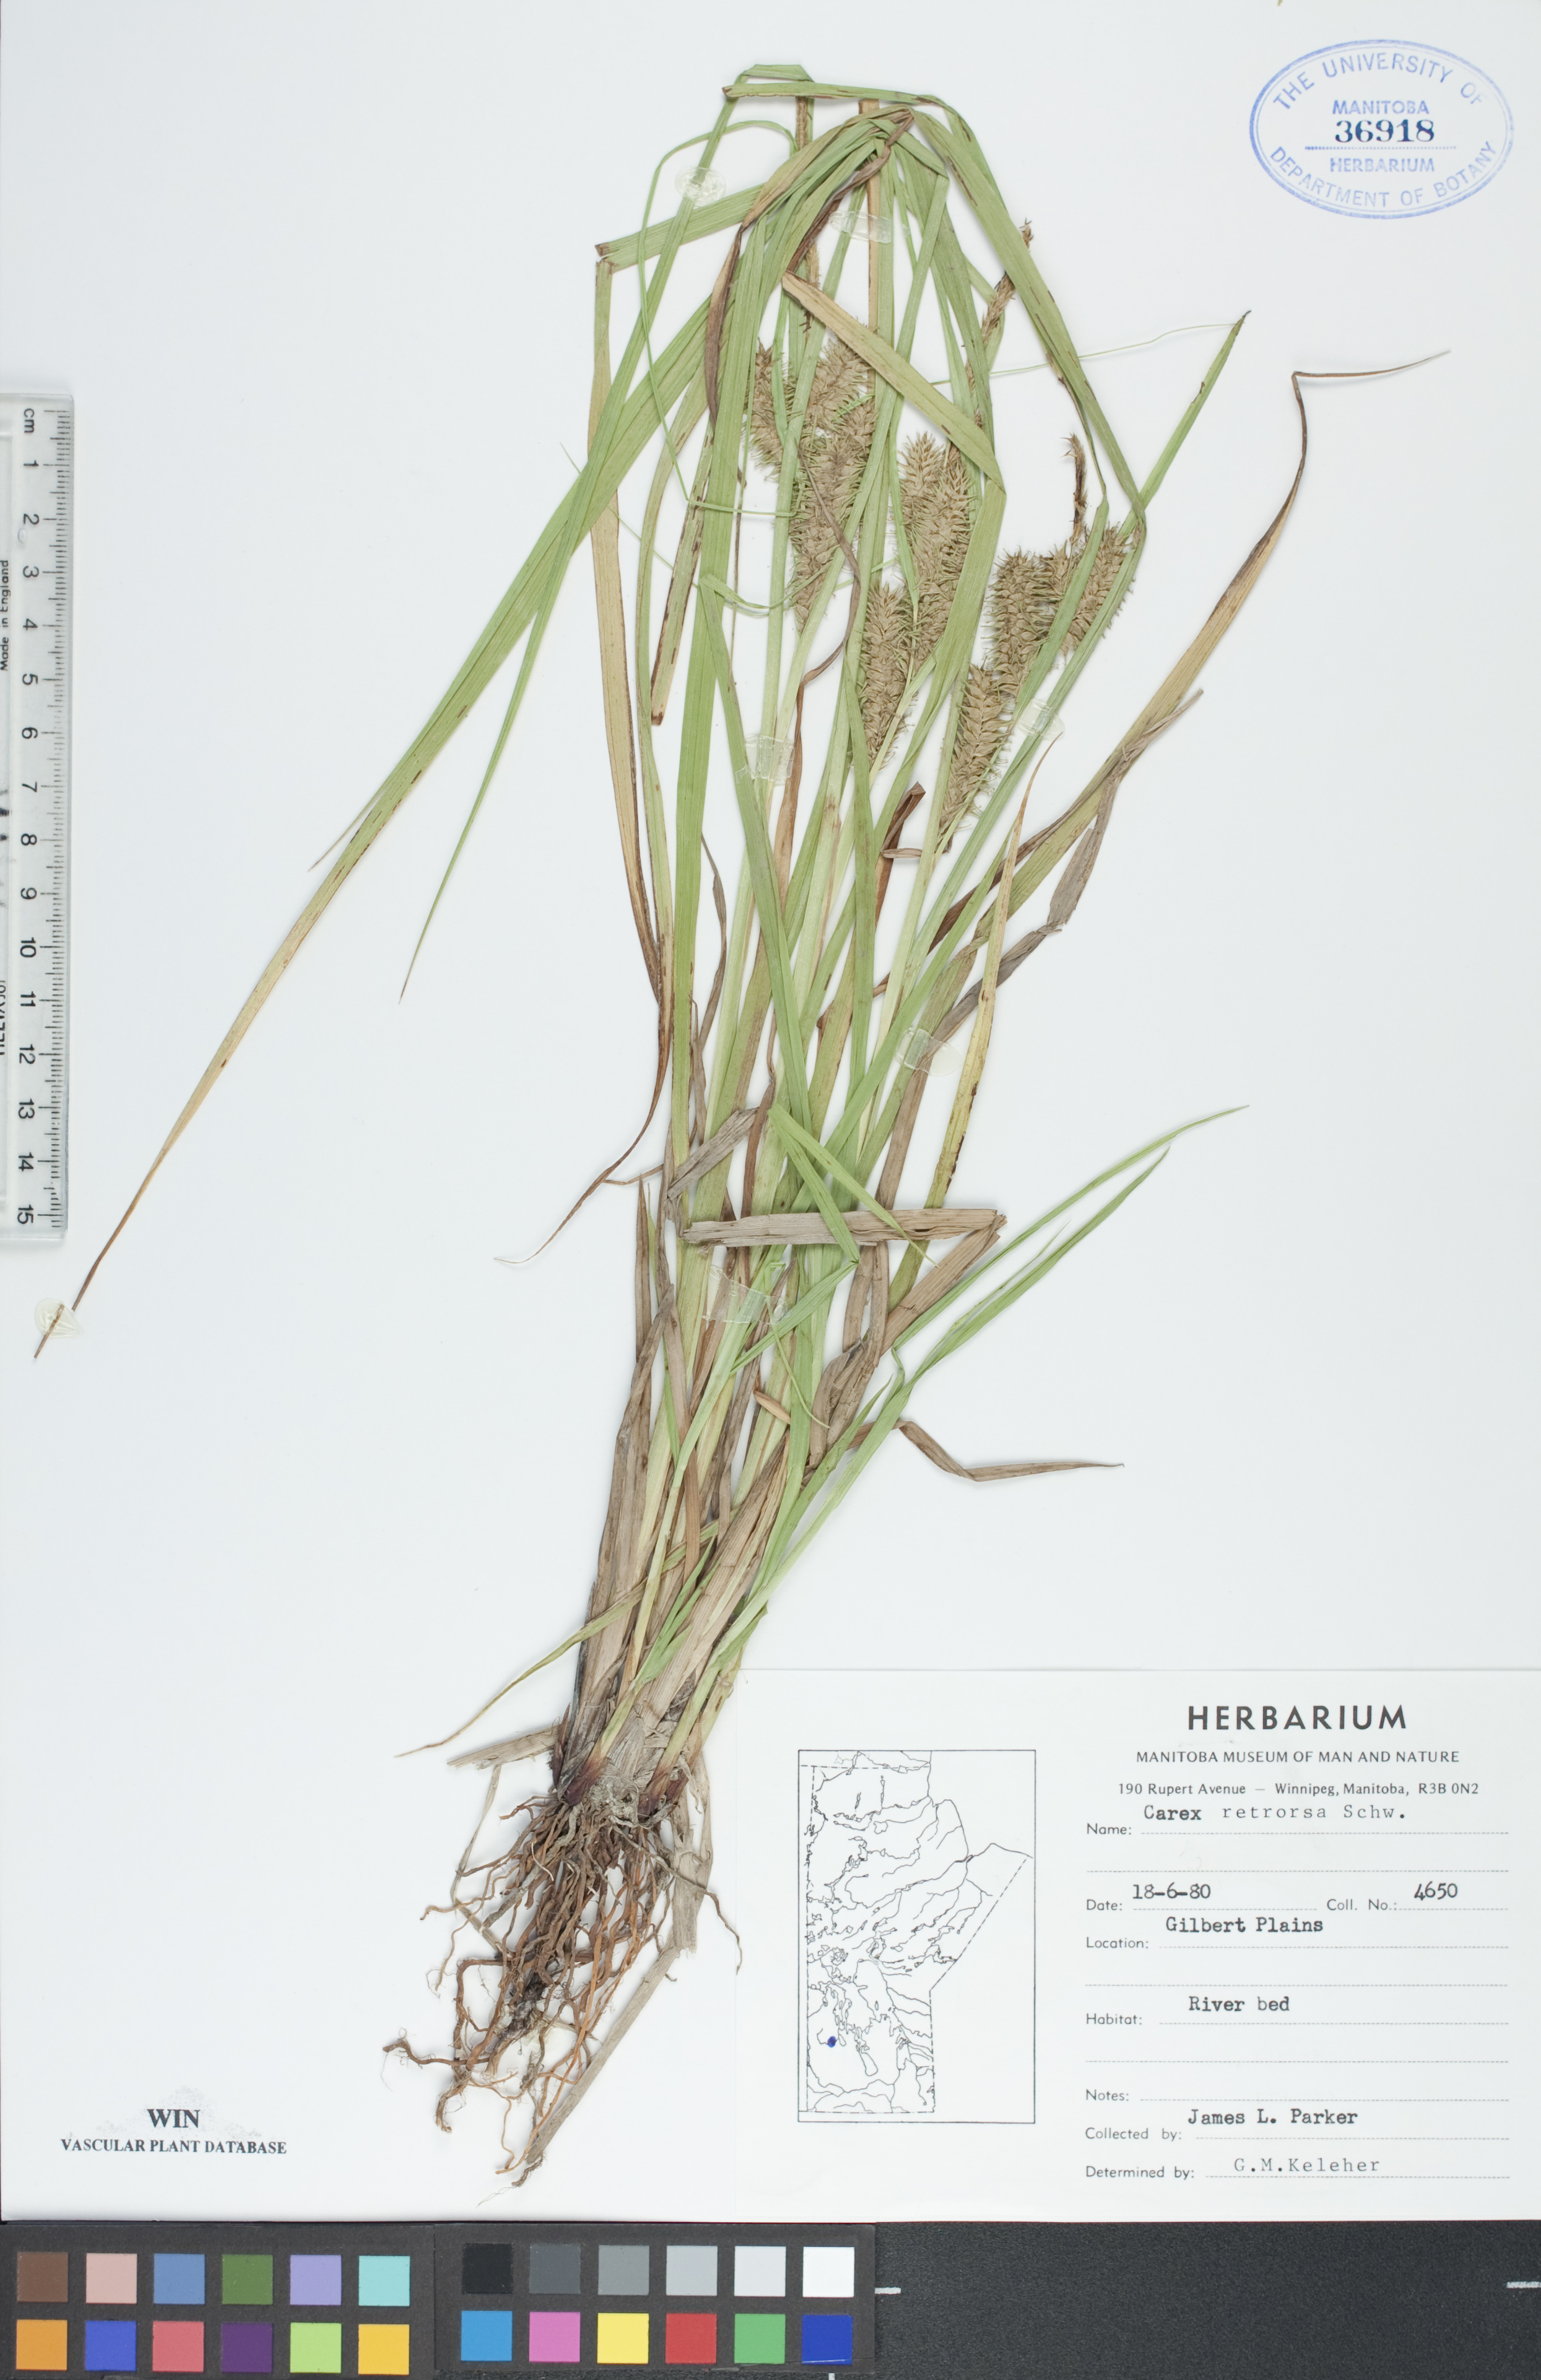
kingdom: Plantae
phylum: Tracheophyta
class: Liliopsida
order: Poales
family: Cyperaceae
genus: Carex
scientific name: Carex retrorsa
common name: Knot-sheath sedge
